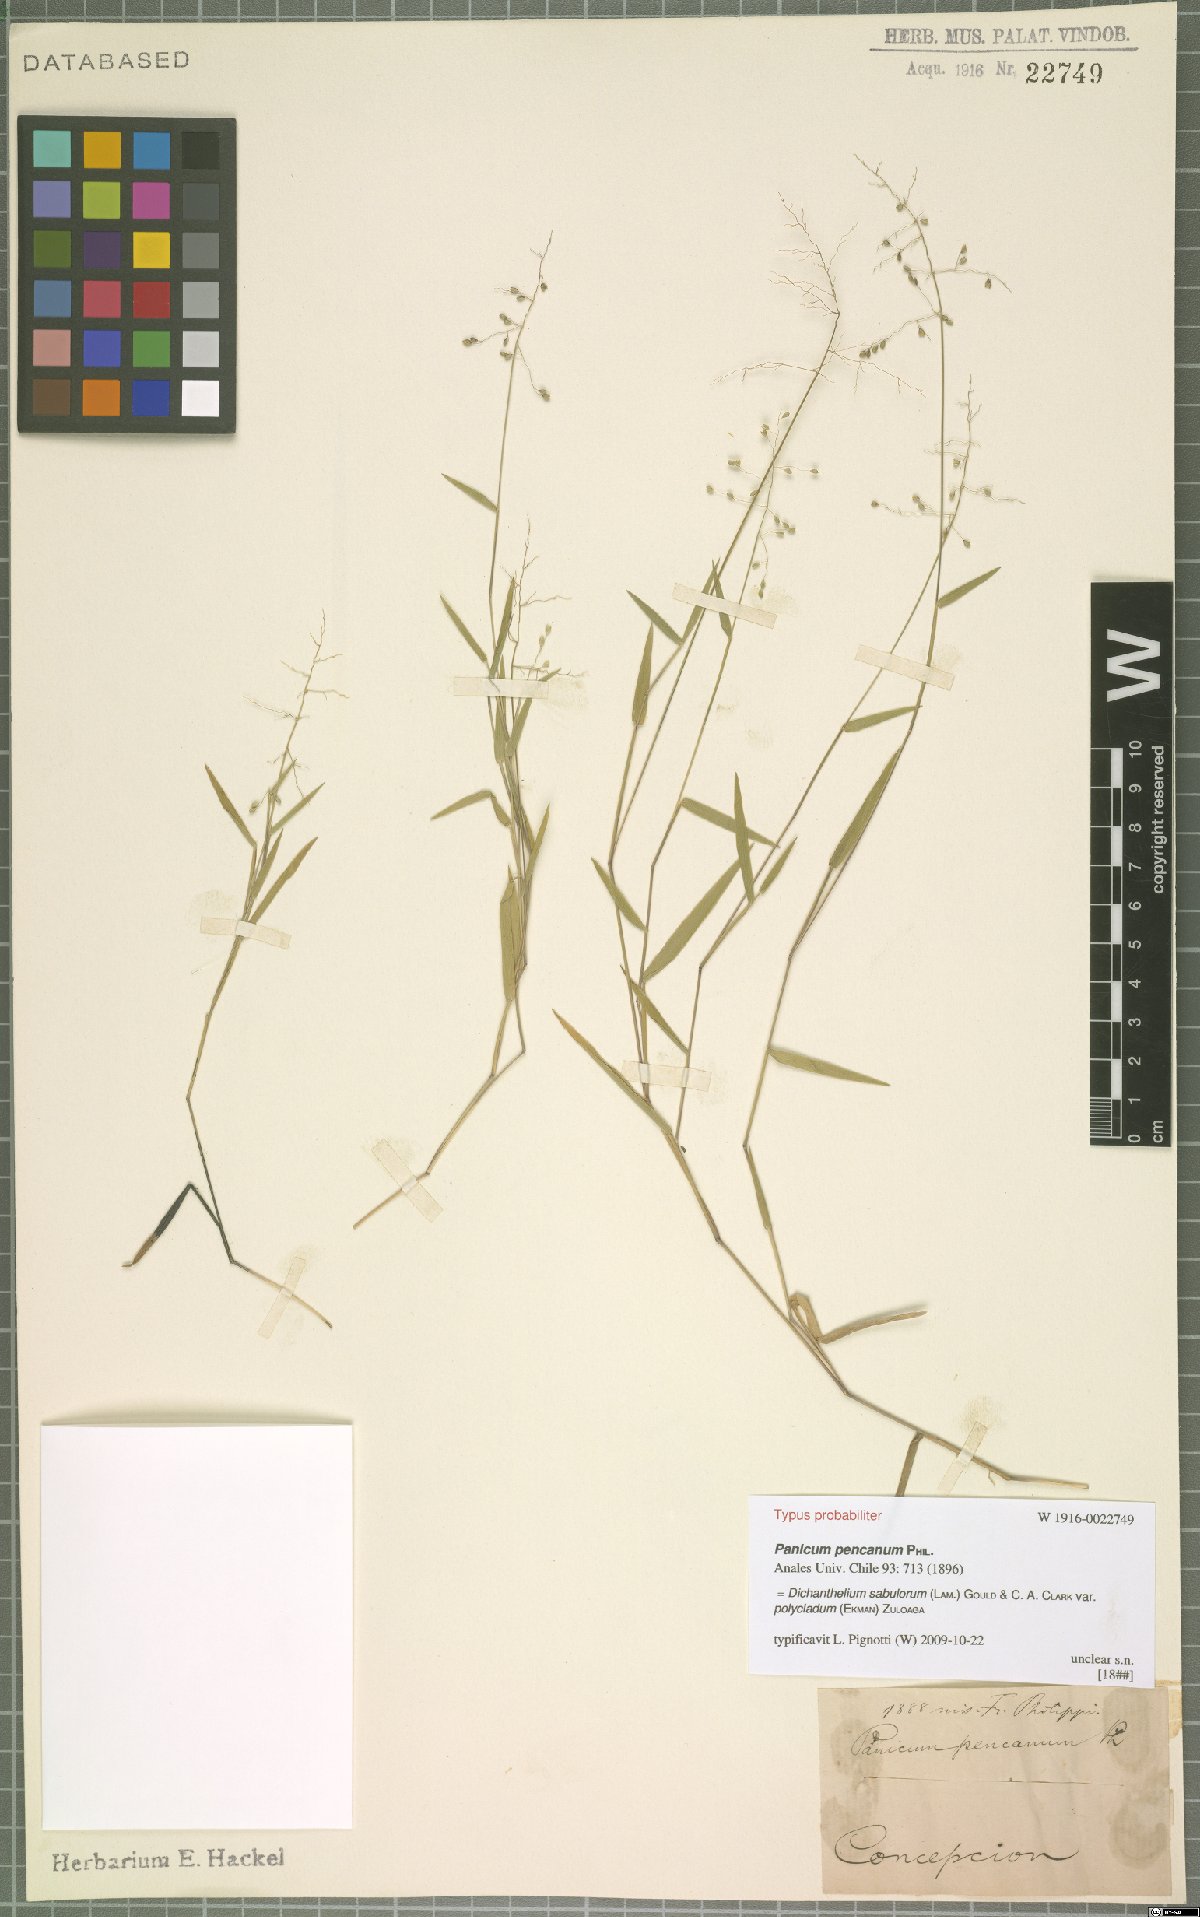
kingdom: Plantae
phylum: Tracheophyta
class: Liliopsida
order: Poales
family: Poaceae
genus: Dichanthelium
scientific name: Dichanthelium sabulorum
